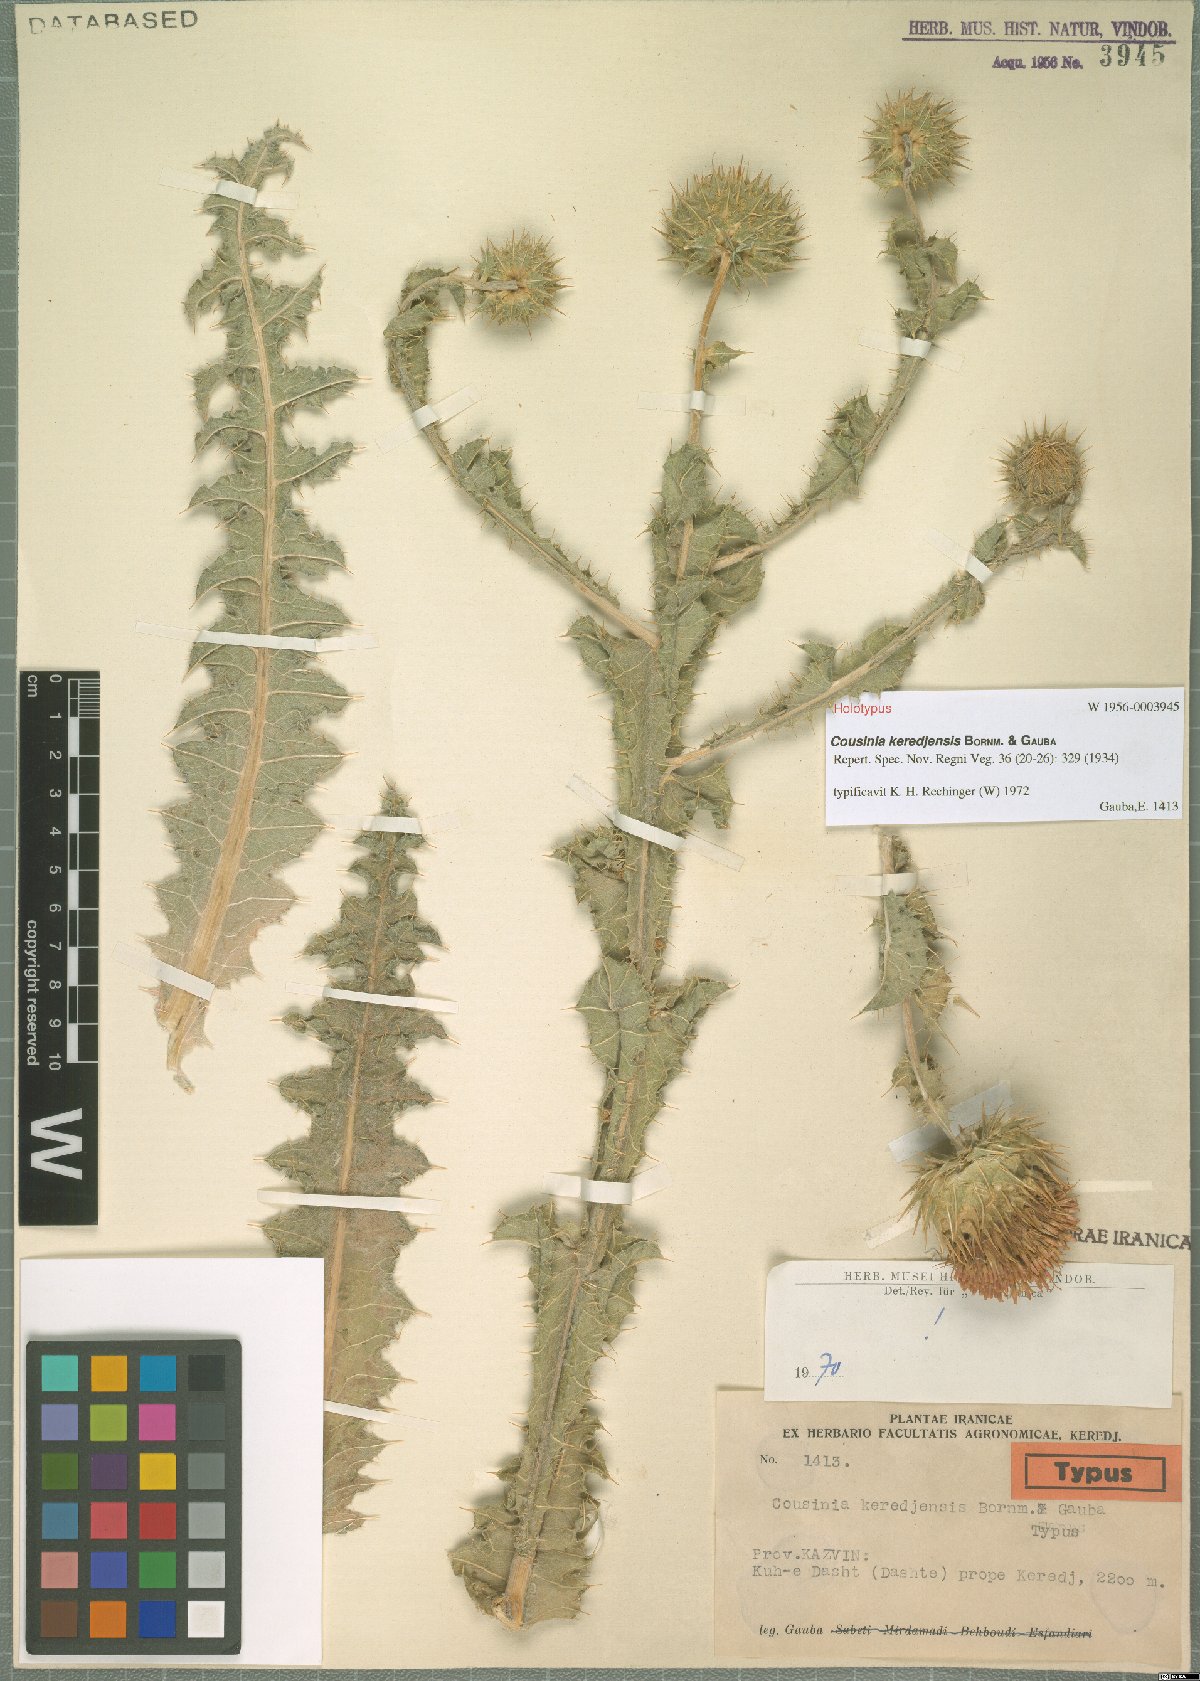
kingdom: Plantae
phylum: Tracheophyta
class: Magnoliopsida
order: Asterales
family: Asteraceae
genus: Cousinia
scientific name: Cousinia keredjensis
